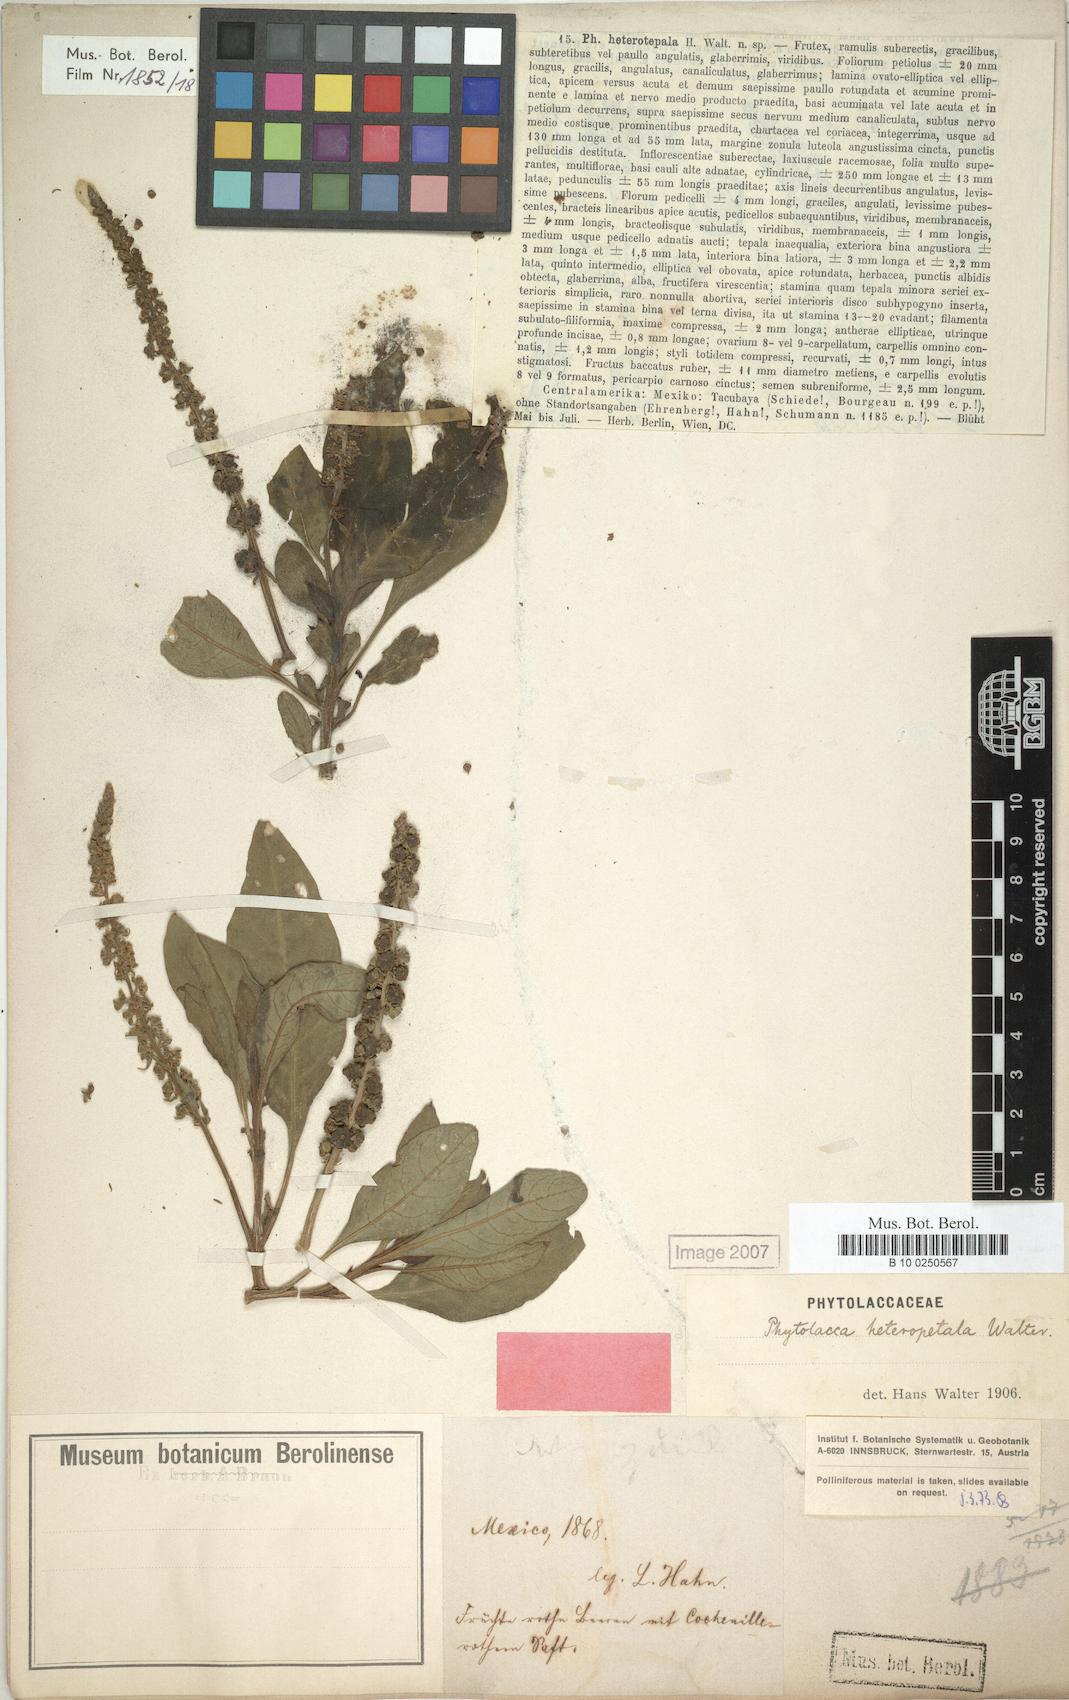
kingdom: Plantae
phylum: Tracheophyta
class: Magnoliopsida
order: Caryophyllales
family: Phytolaccaceae
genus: Phytolacca
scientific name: Phytolacca heterotepala
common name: Mexican pokeweed
